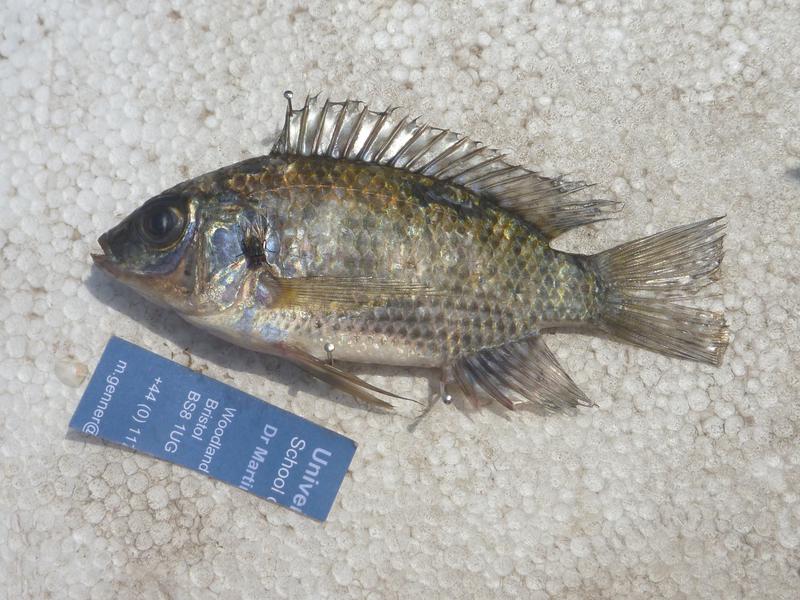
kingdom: Animalia
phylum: Chordata
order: Perciformes
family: Cichlidae
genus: Oreochromis
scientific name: Oreochromis leucostictus
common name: Blue spotted tilapia
